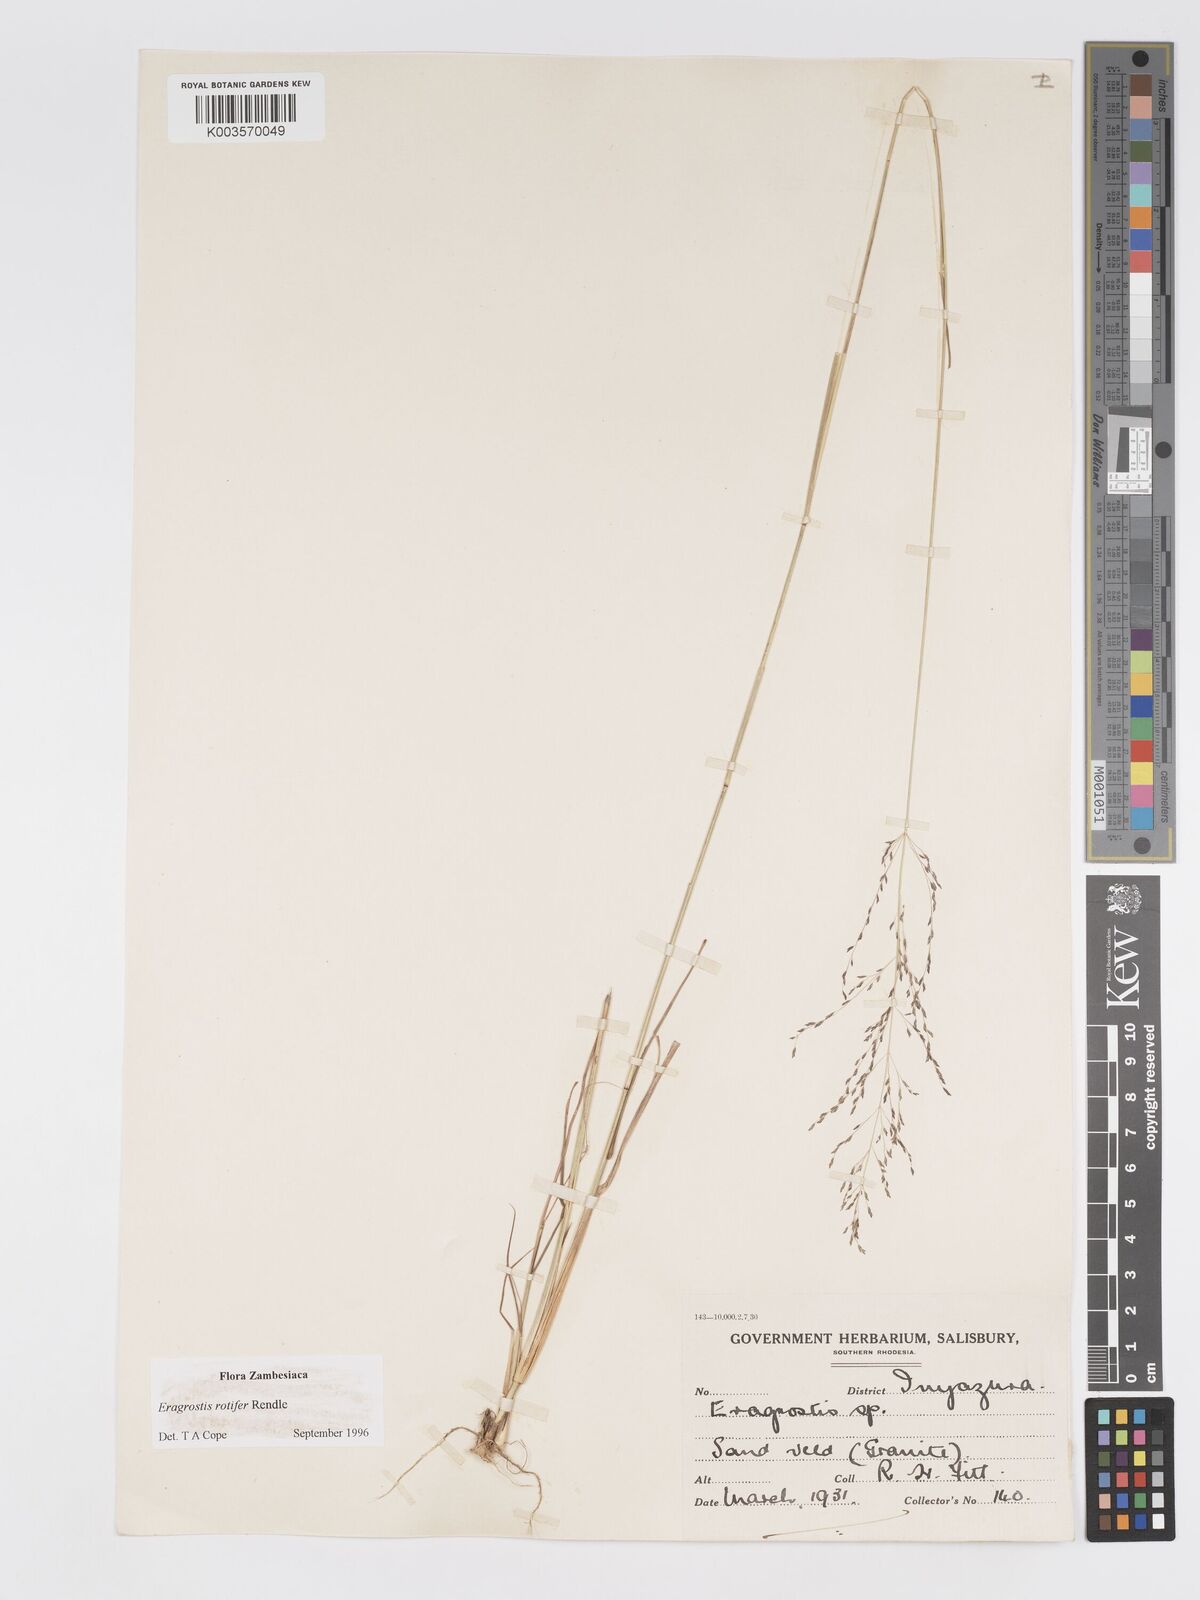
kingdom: Plantae
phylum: Tracheophyta
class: Liliopsida
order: Poales
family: Poaceae
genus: Eragrostis
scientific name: Eragrostis rotifer
